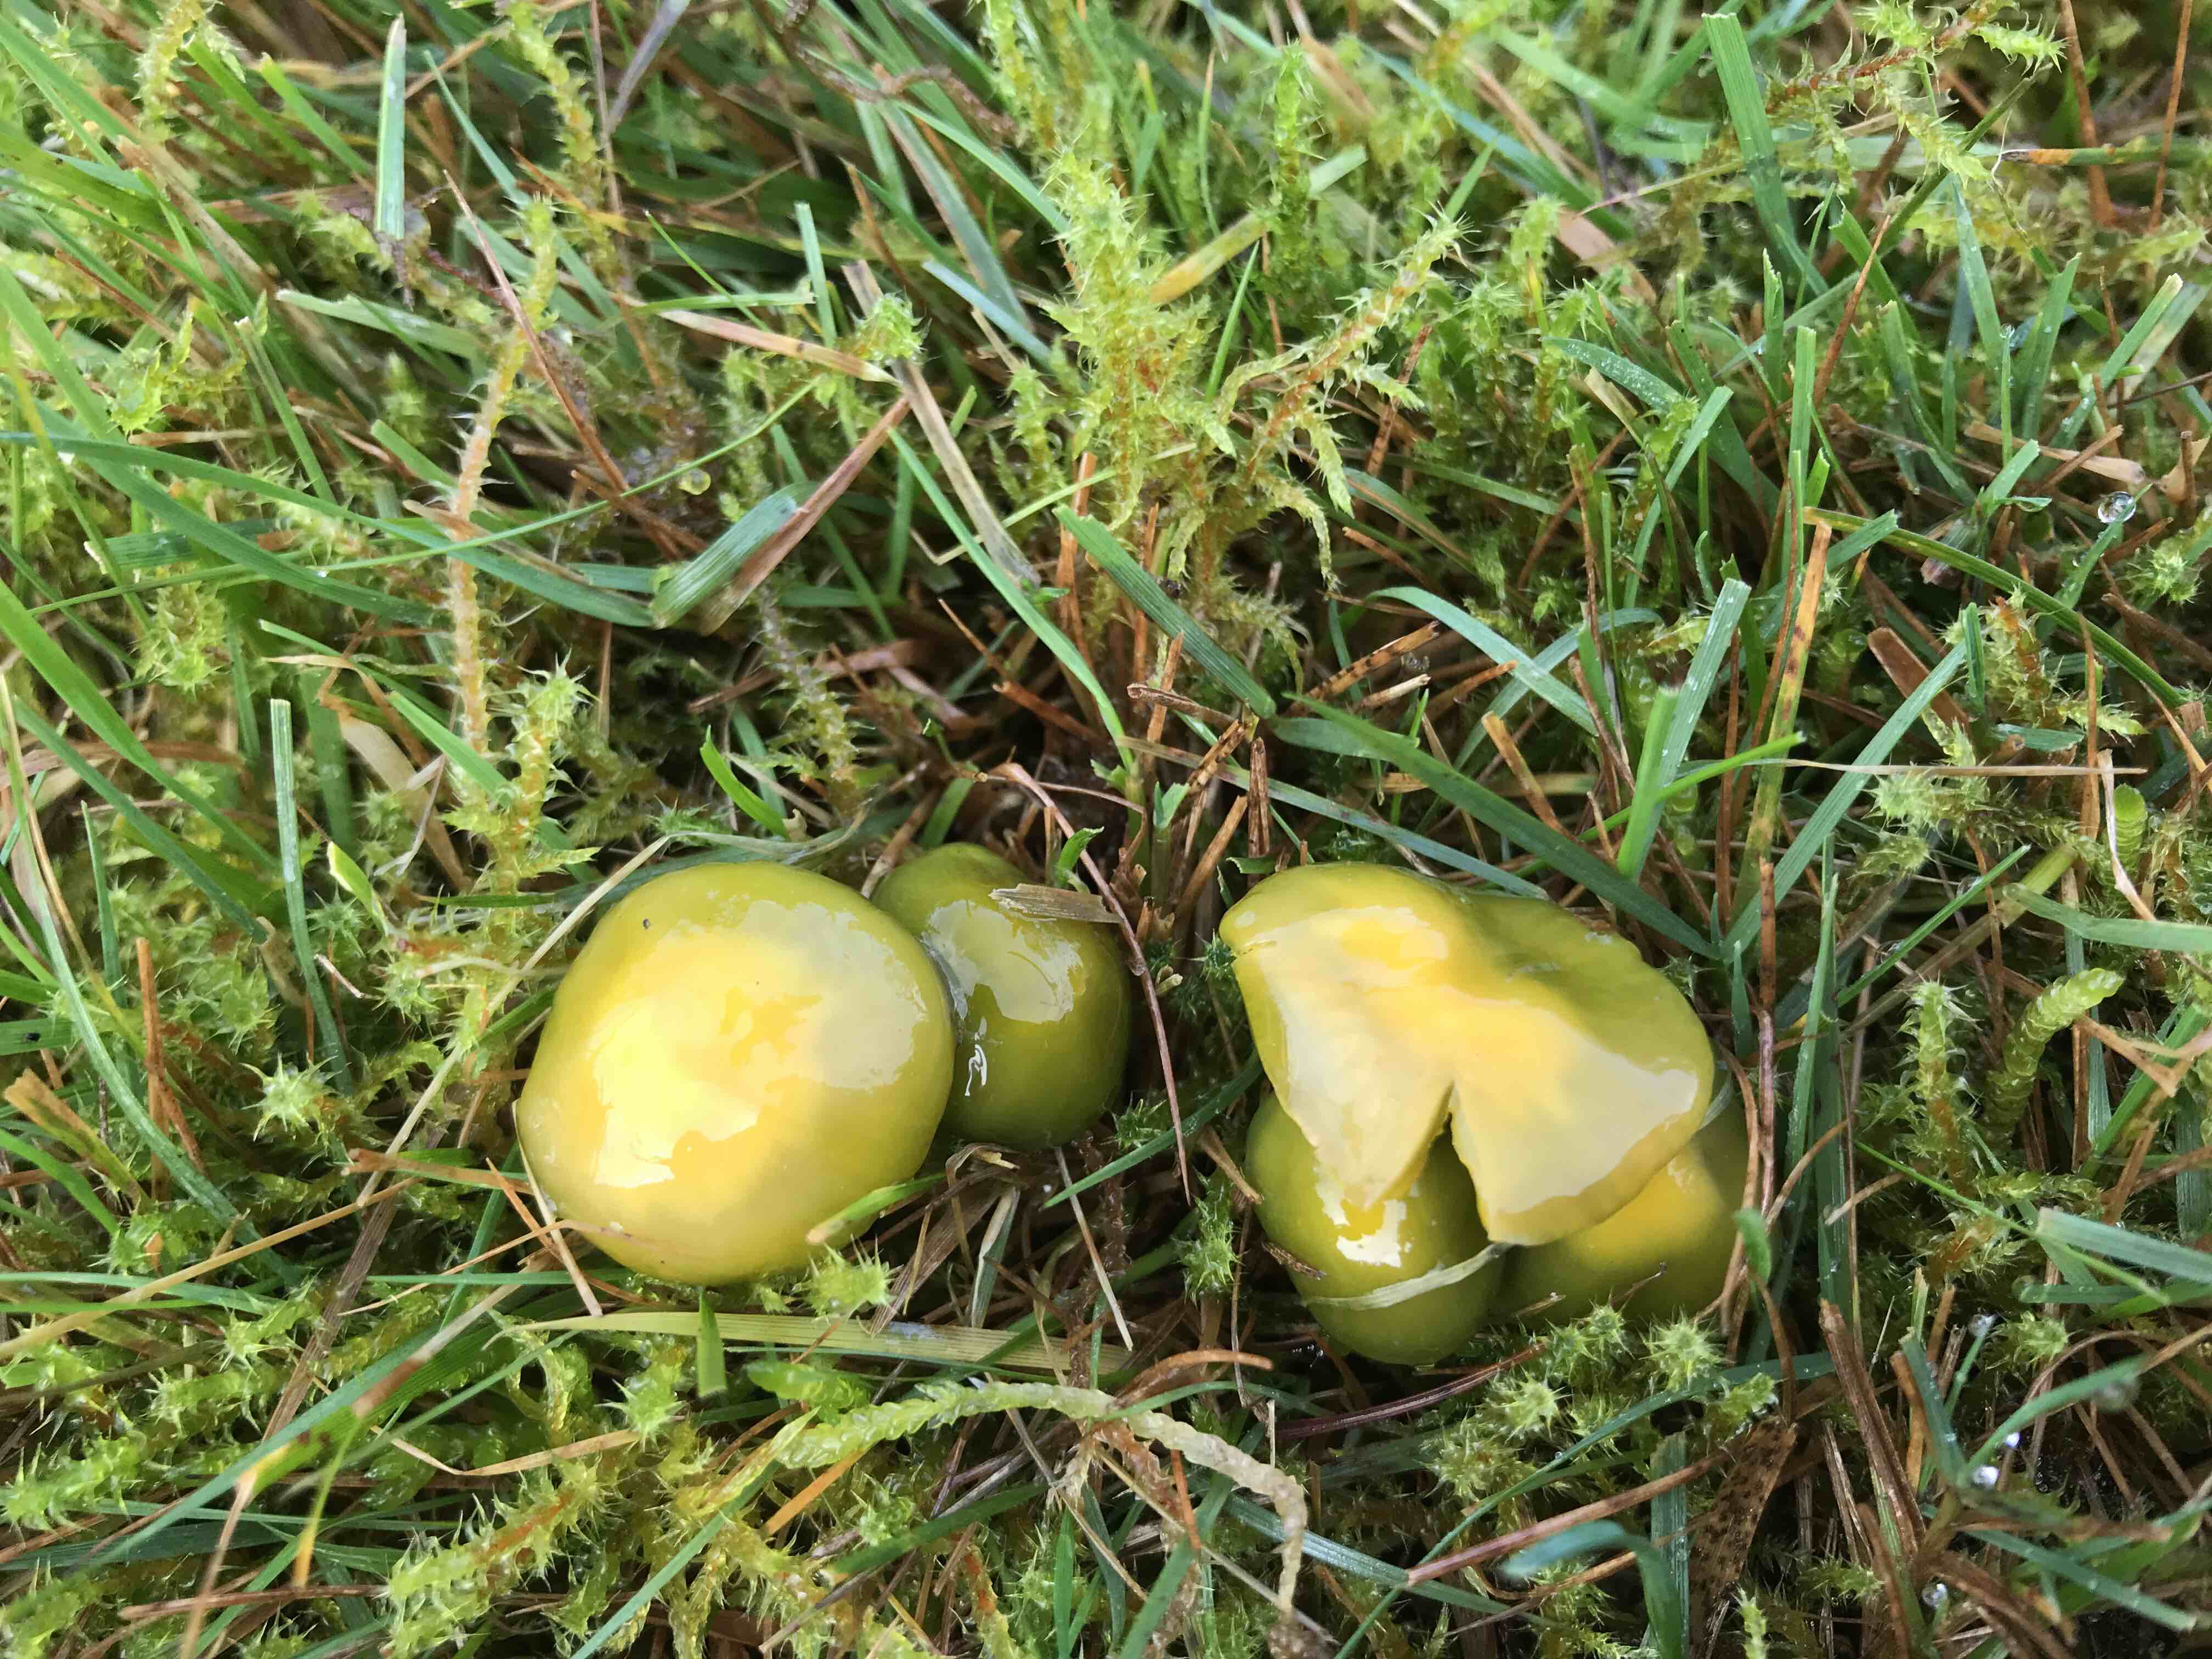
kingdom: Fungi
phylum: Basidiomycota
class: Agaricomycetes
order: Agaricales
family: Hygrophoraceae
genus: Gliophorus
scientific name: Gliophorus psittacinus
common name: papegøje-vokshat
